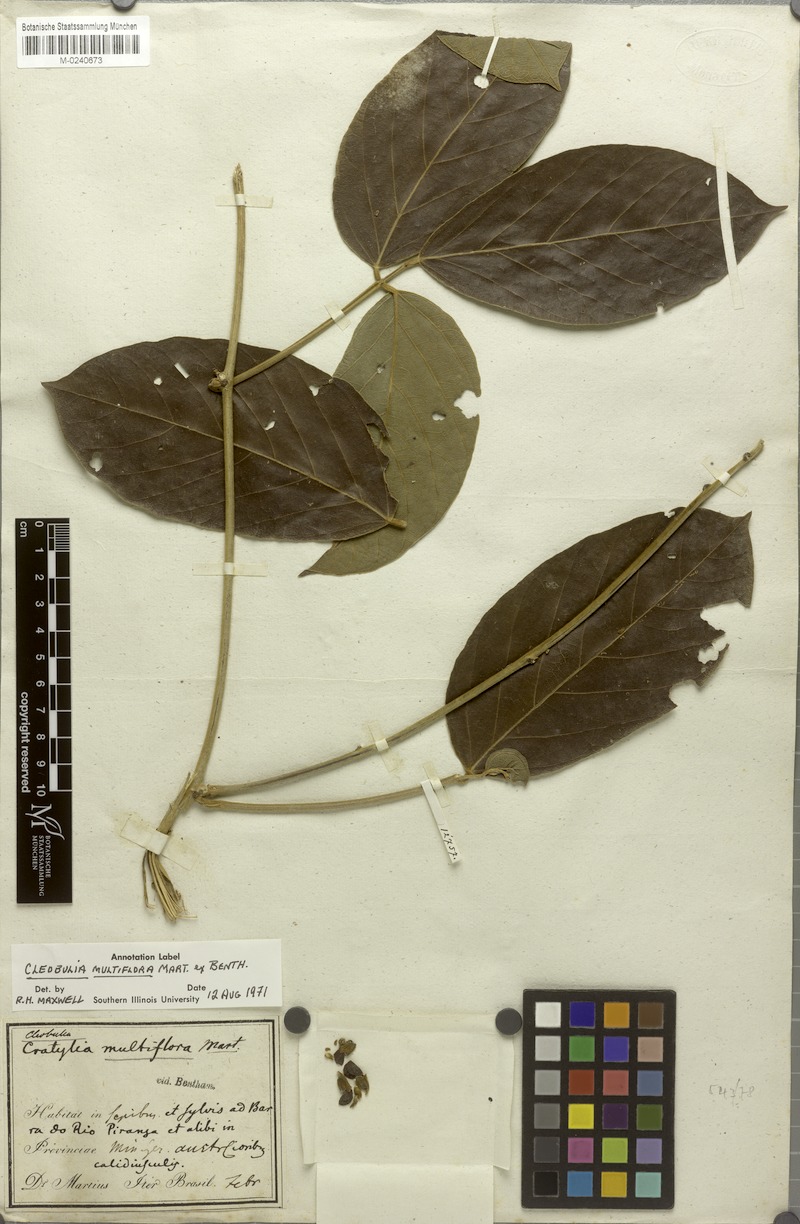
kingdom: Plantae
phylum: Tracheophyta
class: Magnoliopsida
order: Fabales
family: Fabaceae
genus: Cleobulia
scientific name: Cleobulia coccinea
